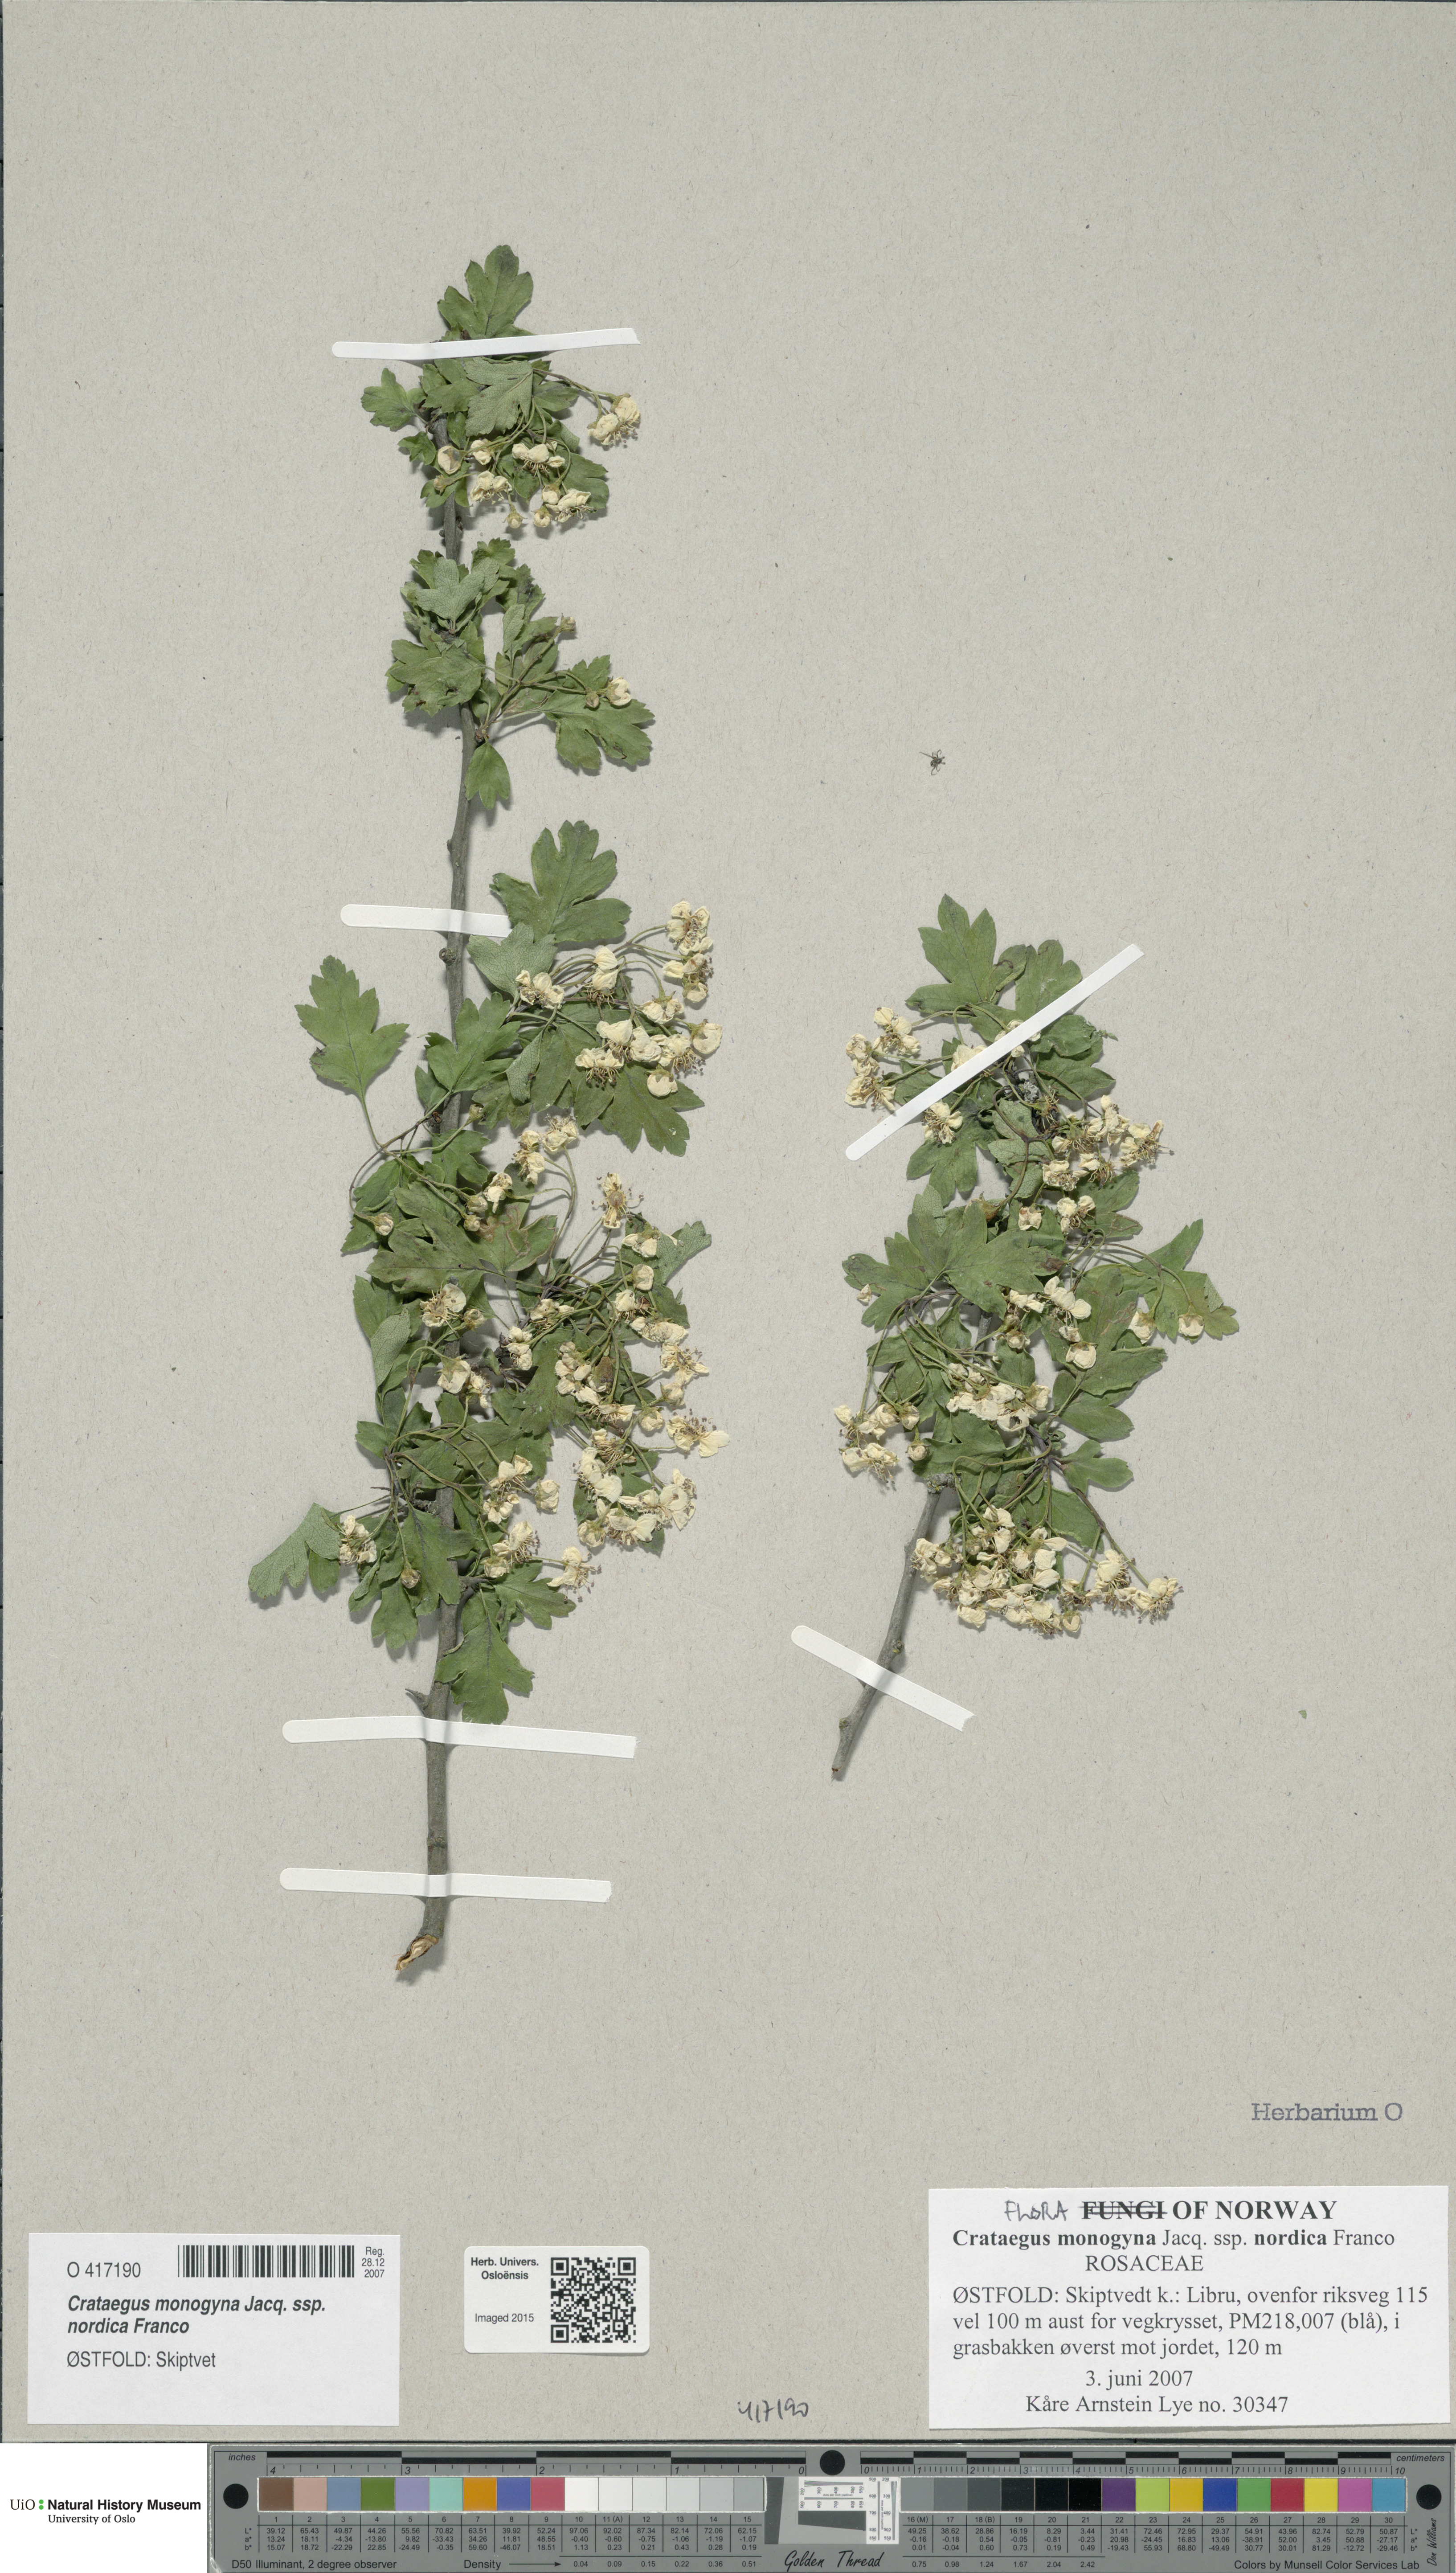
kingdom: Plantae
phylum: Tracheophyta
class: Magnoliopsida
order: Rosales
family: Rosaceae
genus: Crataegus
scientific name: Crataegus monogyna
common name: Hawthorn
